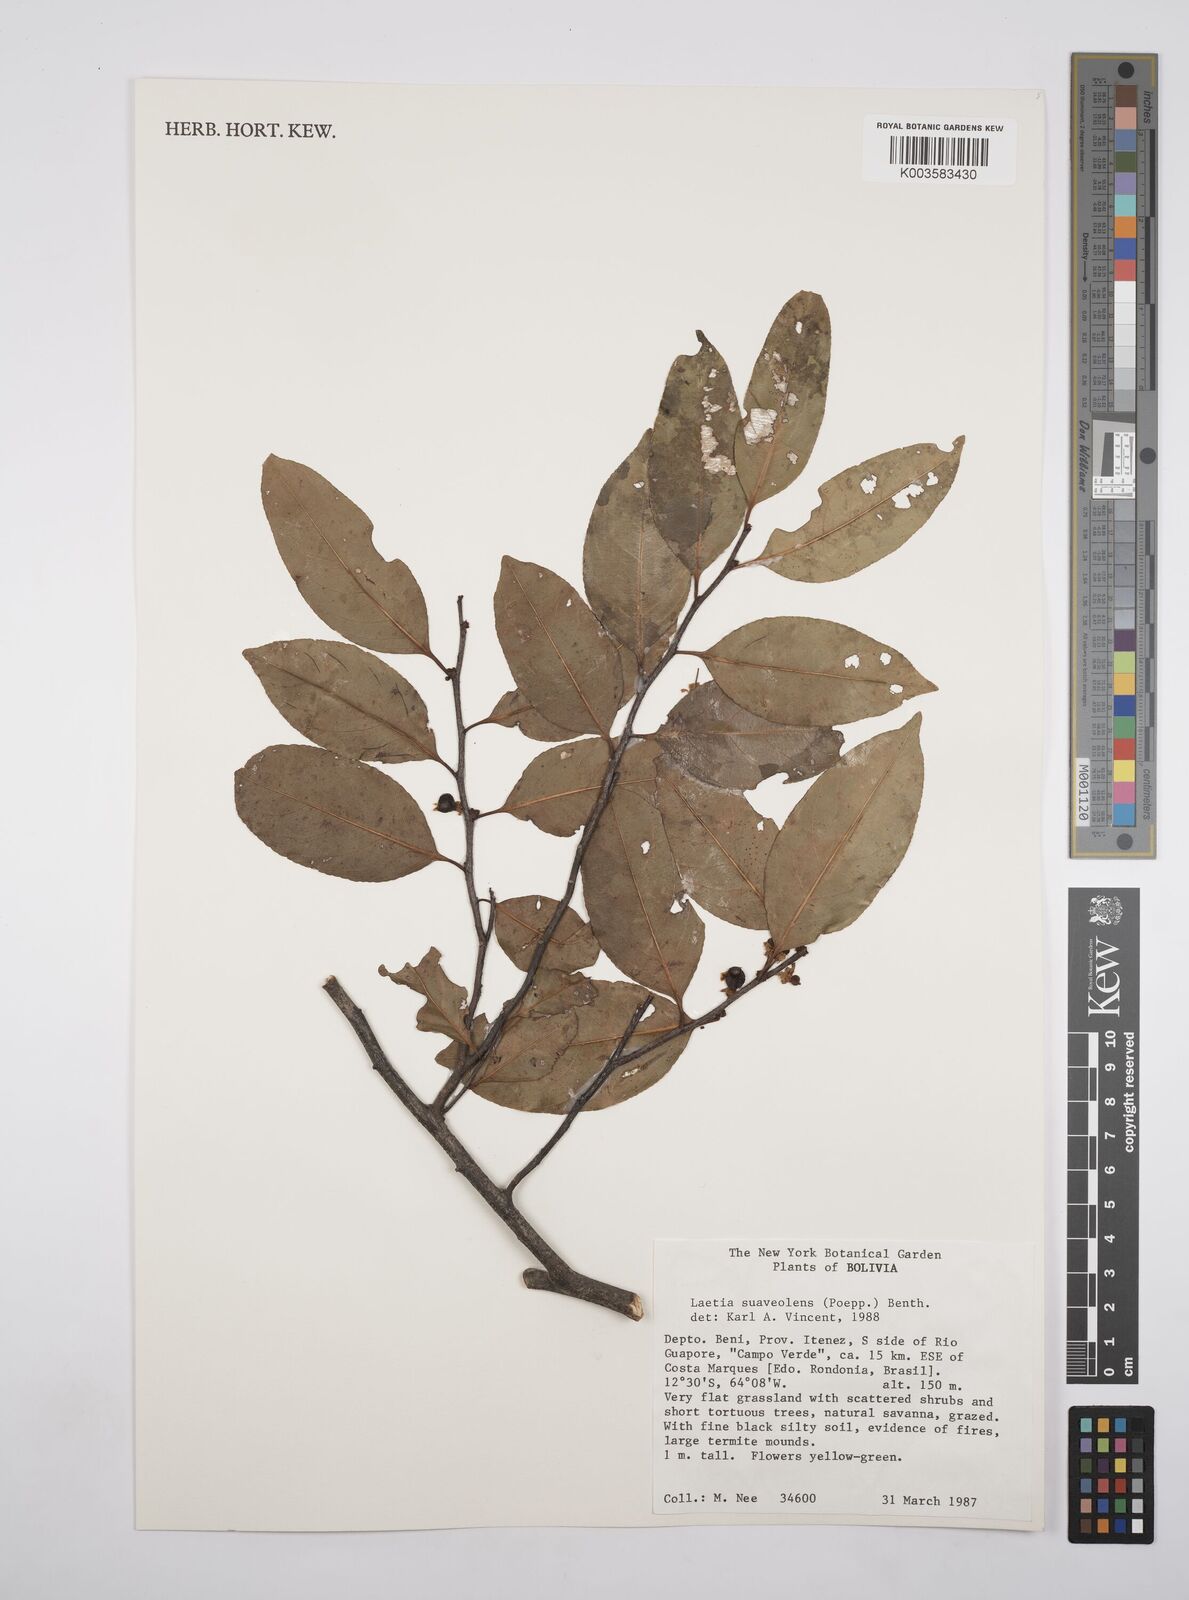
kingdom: Plantae
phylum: Tracheophyta
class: Magnoliopsida
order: Malpighiales
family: Salicaceae
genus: Casearia
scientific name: Casearia suaveolens
